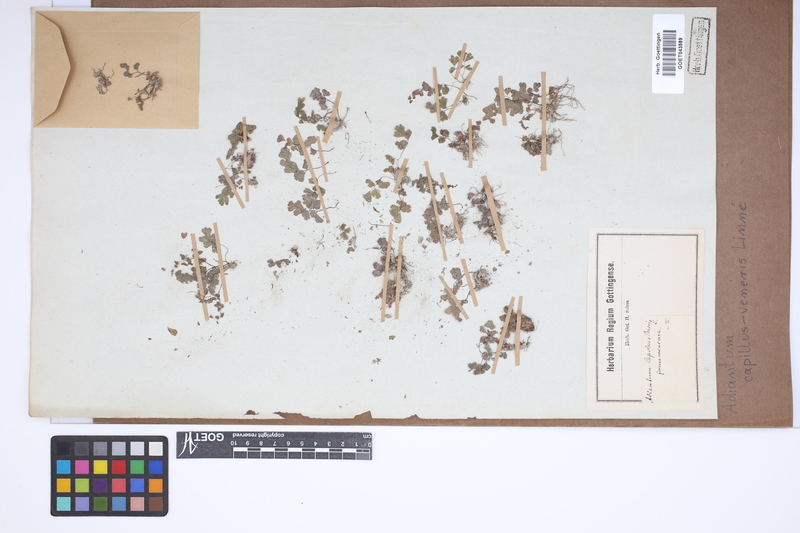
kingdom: Plantae
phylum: Tracheophyta
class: Polypodiopsida
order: Polypodiales
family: Pteridaceae
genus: Adiantum
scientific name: Adiantum capillus-veneris
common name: Maidenhair fern
